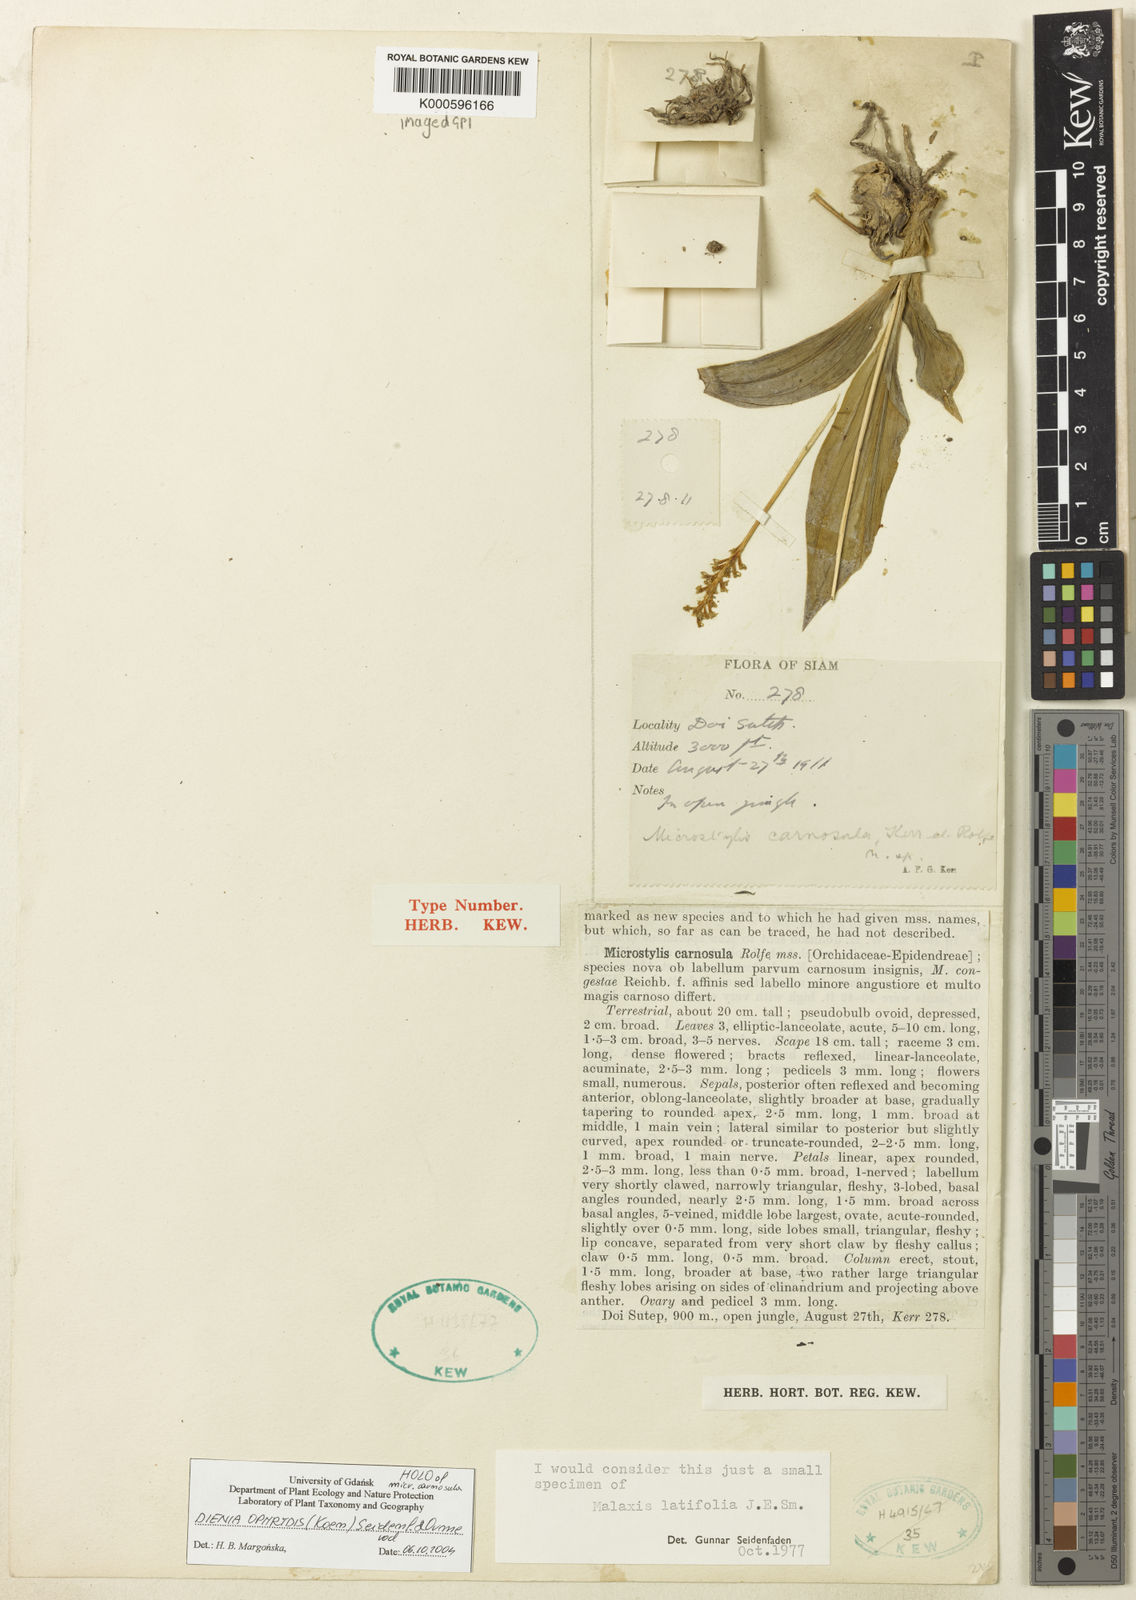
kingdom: Plantae
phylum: Tracheophyta
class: Liliopsida
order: Asparagales
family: Orchidaceae
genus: Dienia
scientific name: Dienia ophrydis
